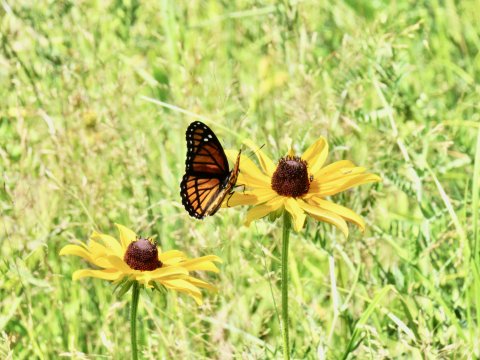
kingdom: Animalia
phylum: Arthropoda
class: Insecta
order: Lepidoptera
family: Nymphalidae
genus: Limenitis
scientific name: Limenitis archippus
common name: Viceroy
